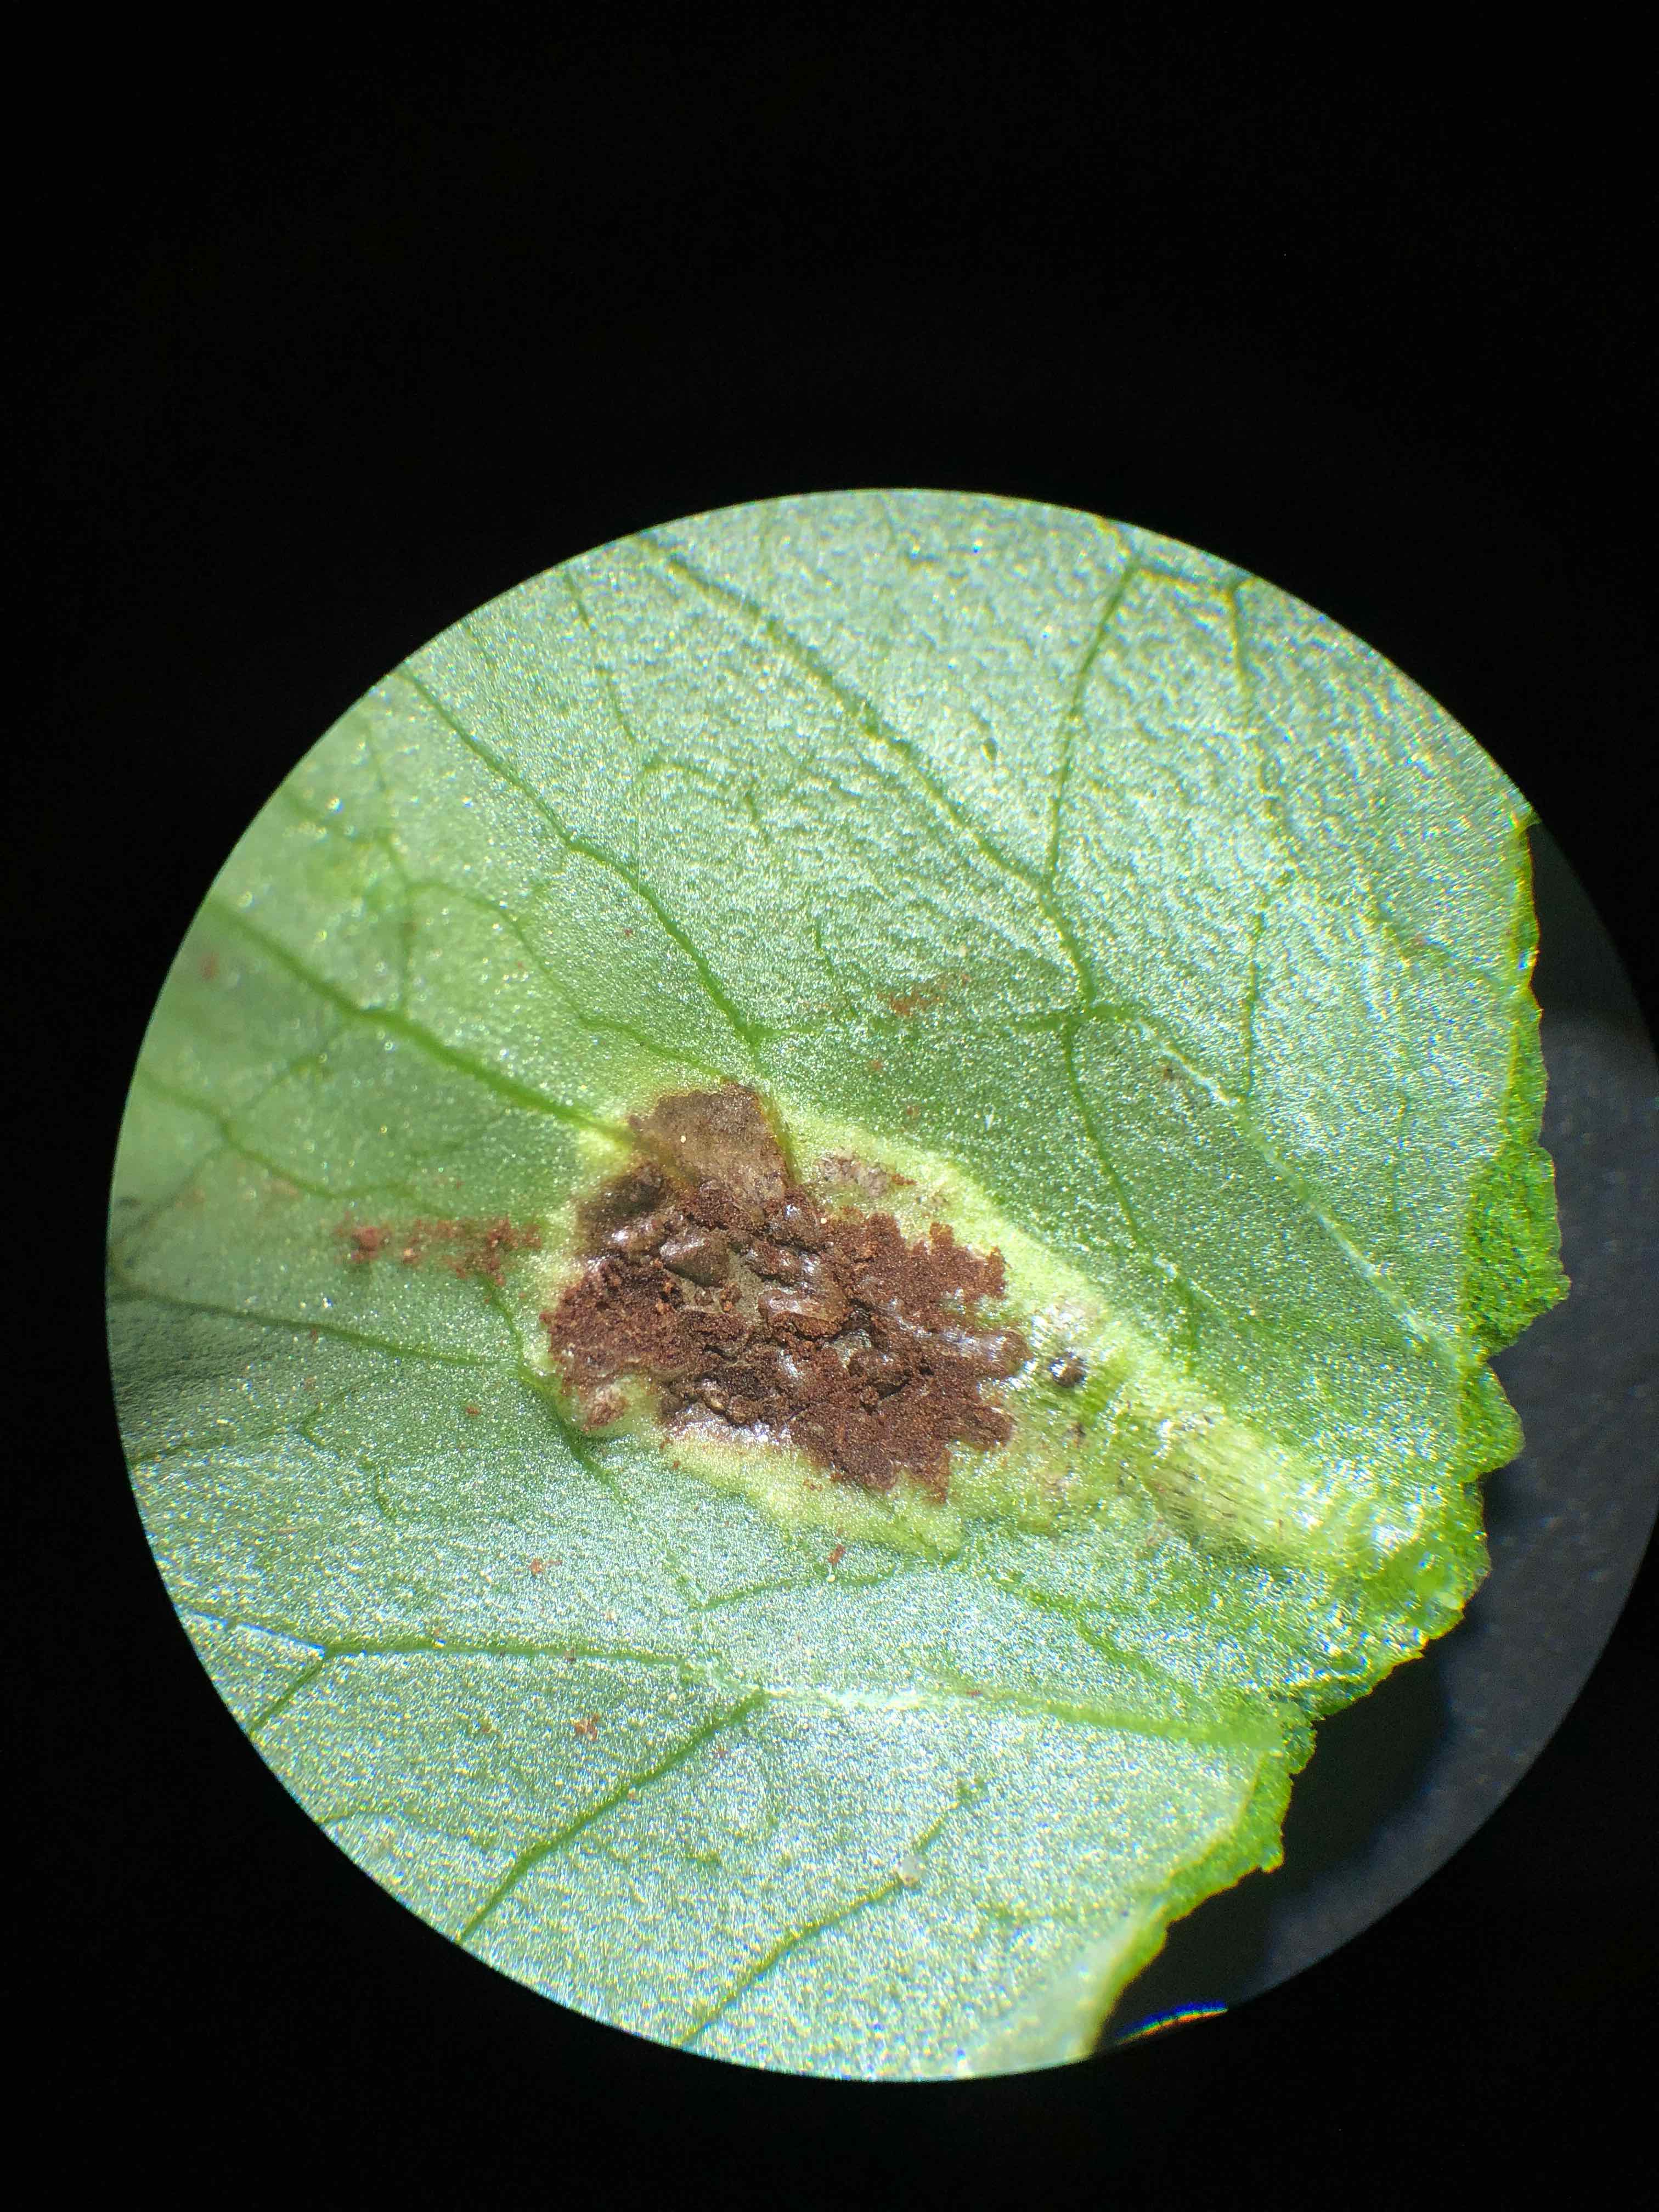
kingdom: Fungi
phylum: Basidiomycota
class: Pucciniomycetes
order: Pucciniales
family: Pucciniaceae
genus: Uromyces
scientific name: Uromyces ficariae
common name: vorterod-encellerust
